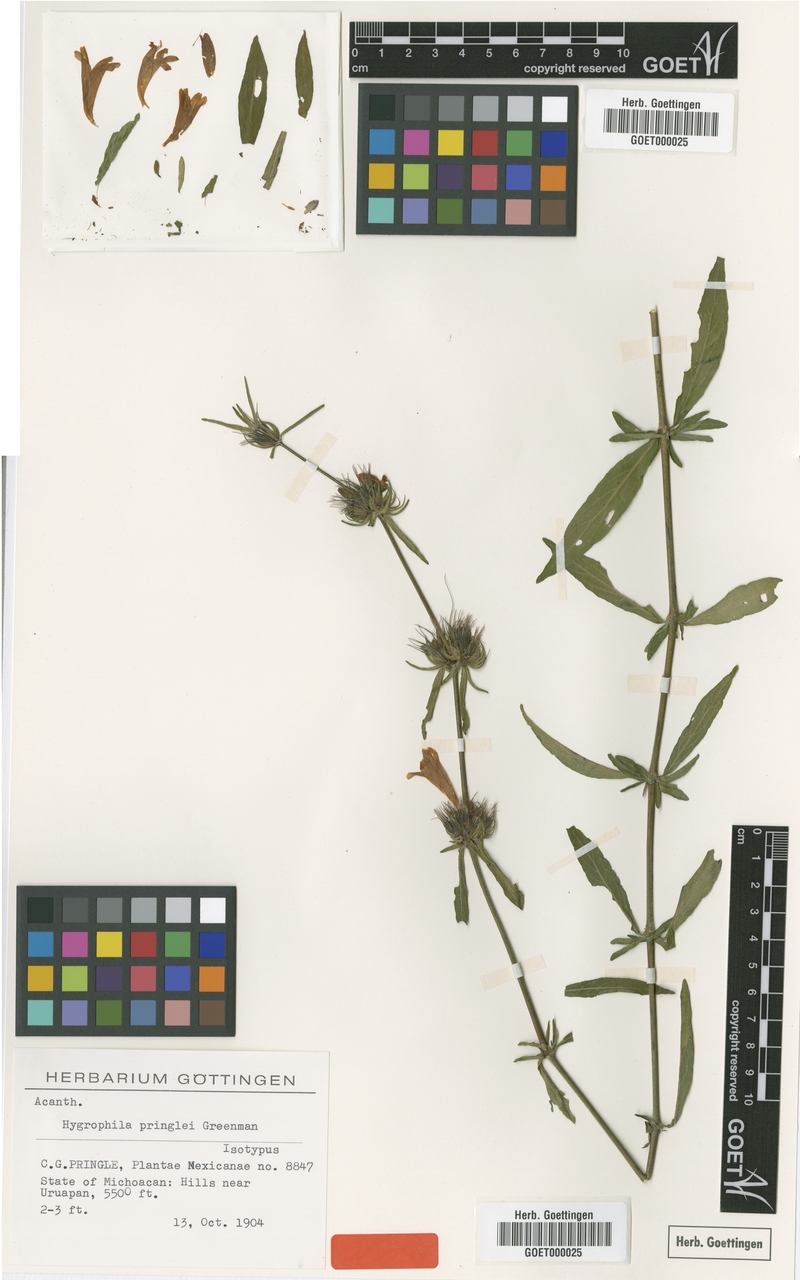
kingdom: Plantae
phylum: Tracheophyta
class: Magnoliopsida
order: Lamiales
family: Acanthaceae
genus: Dyschoriste
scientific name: Dyschoriste angustifolia
